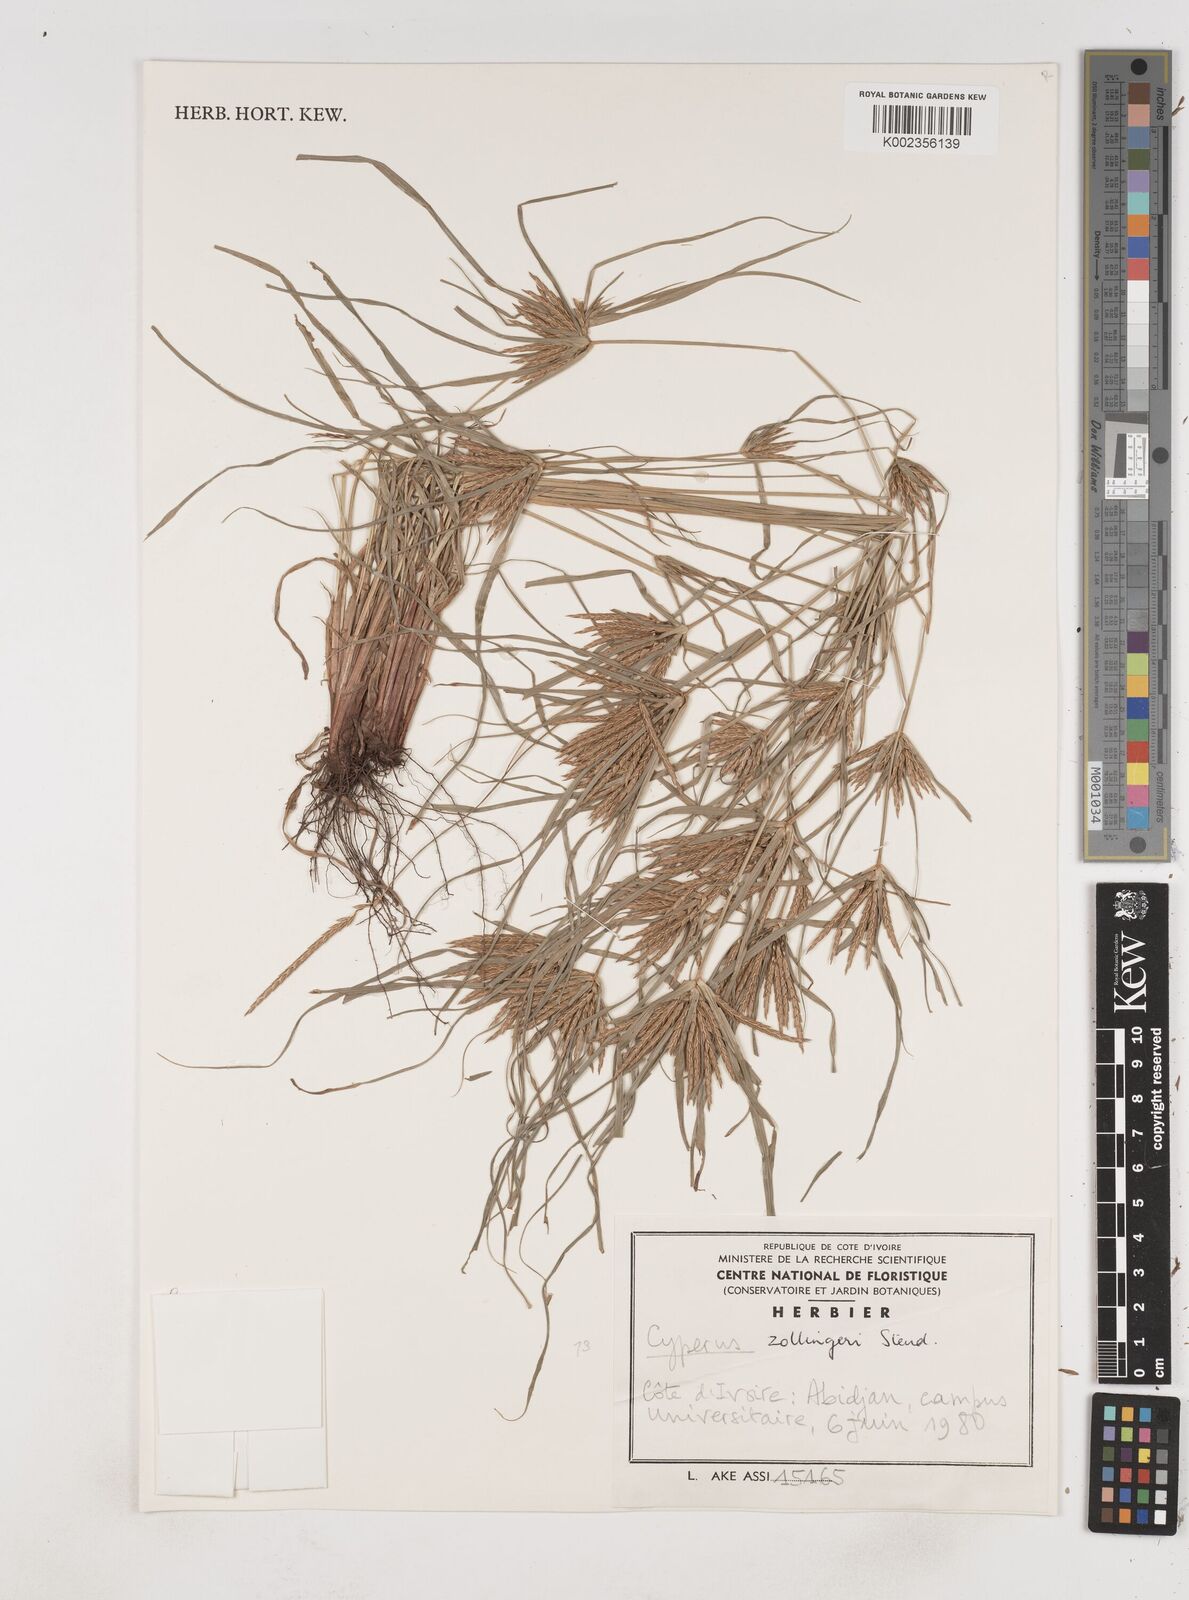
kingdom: Plantae
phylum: Tracheophyta
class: Liliopsida
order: Poales
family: Cyperaceae
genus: Cyperus
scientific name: Cyperus zollingeri
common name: Roadside flatsedge
